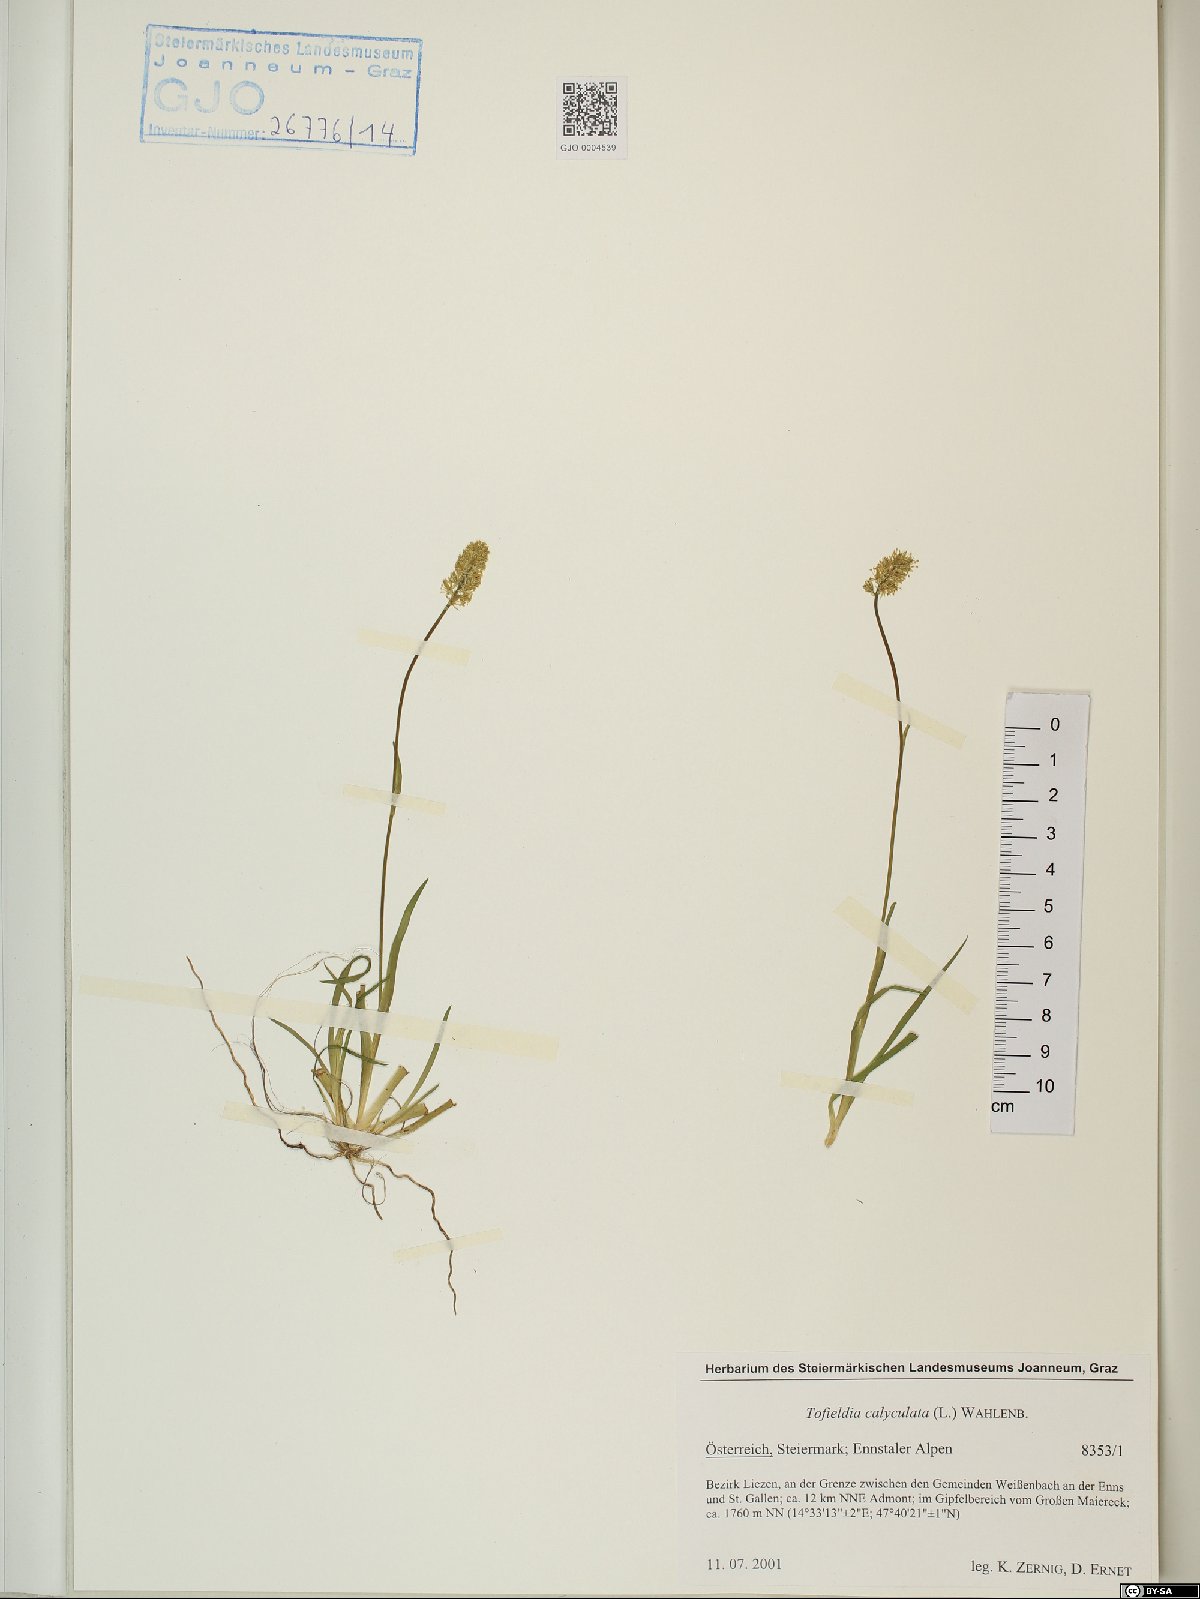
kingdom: Plantae
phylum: Tracheophyta
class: Liliopsida
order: Alismatales
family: Tofieldiaceae
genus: Tofieldia
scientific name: Tofieldia calyculata
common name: German-asphodel
